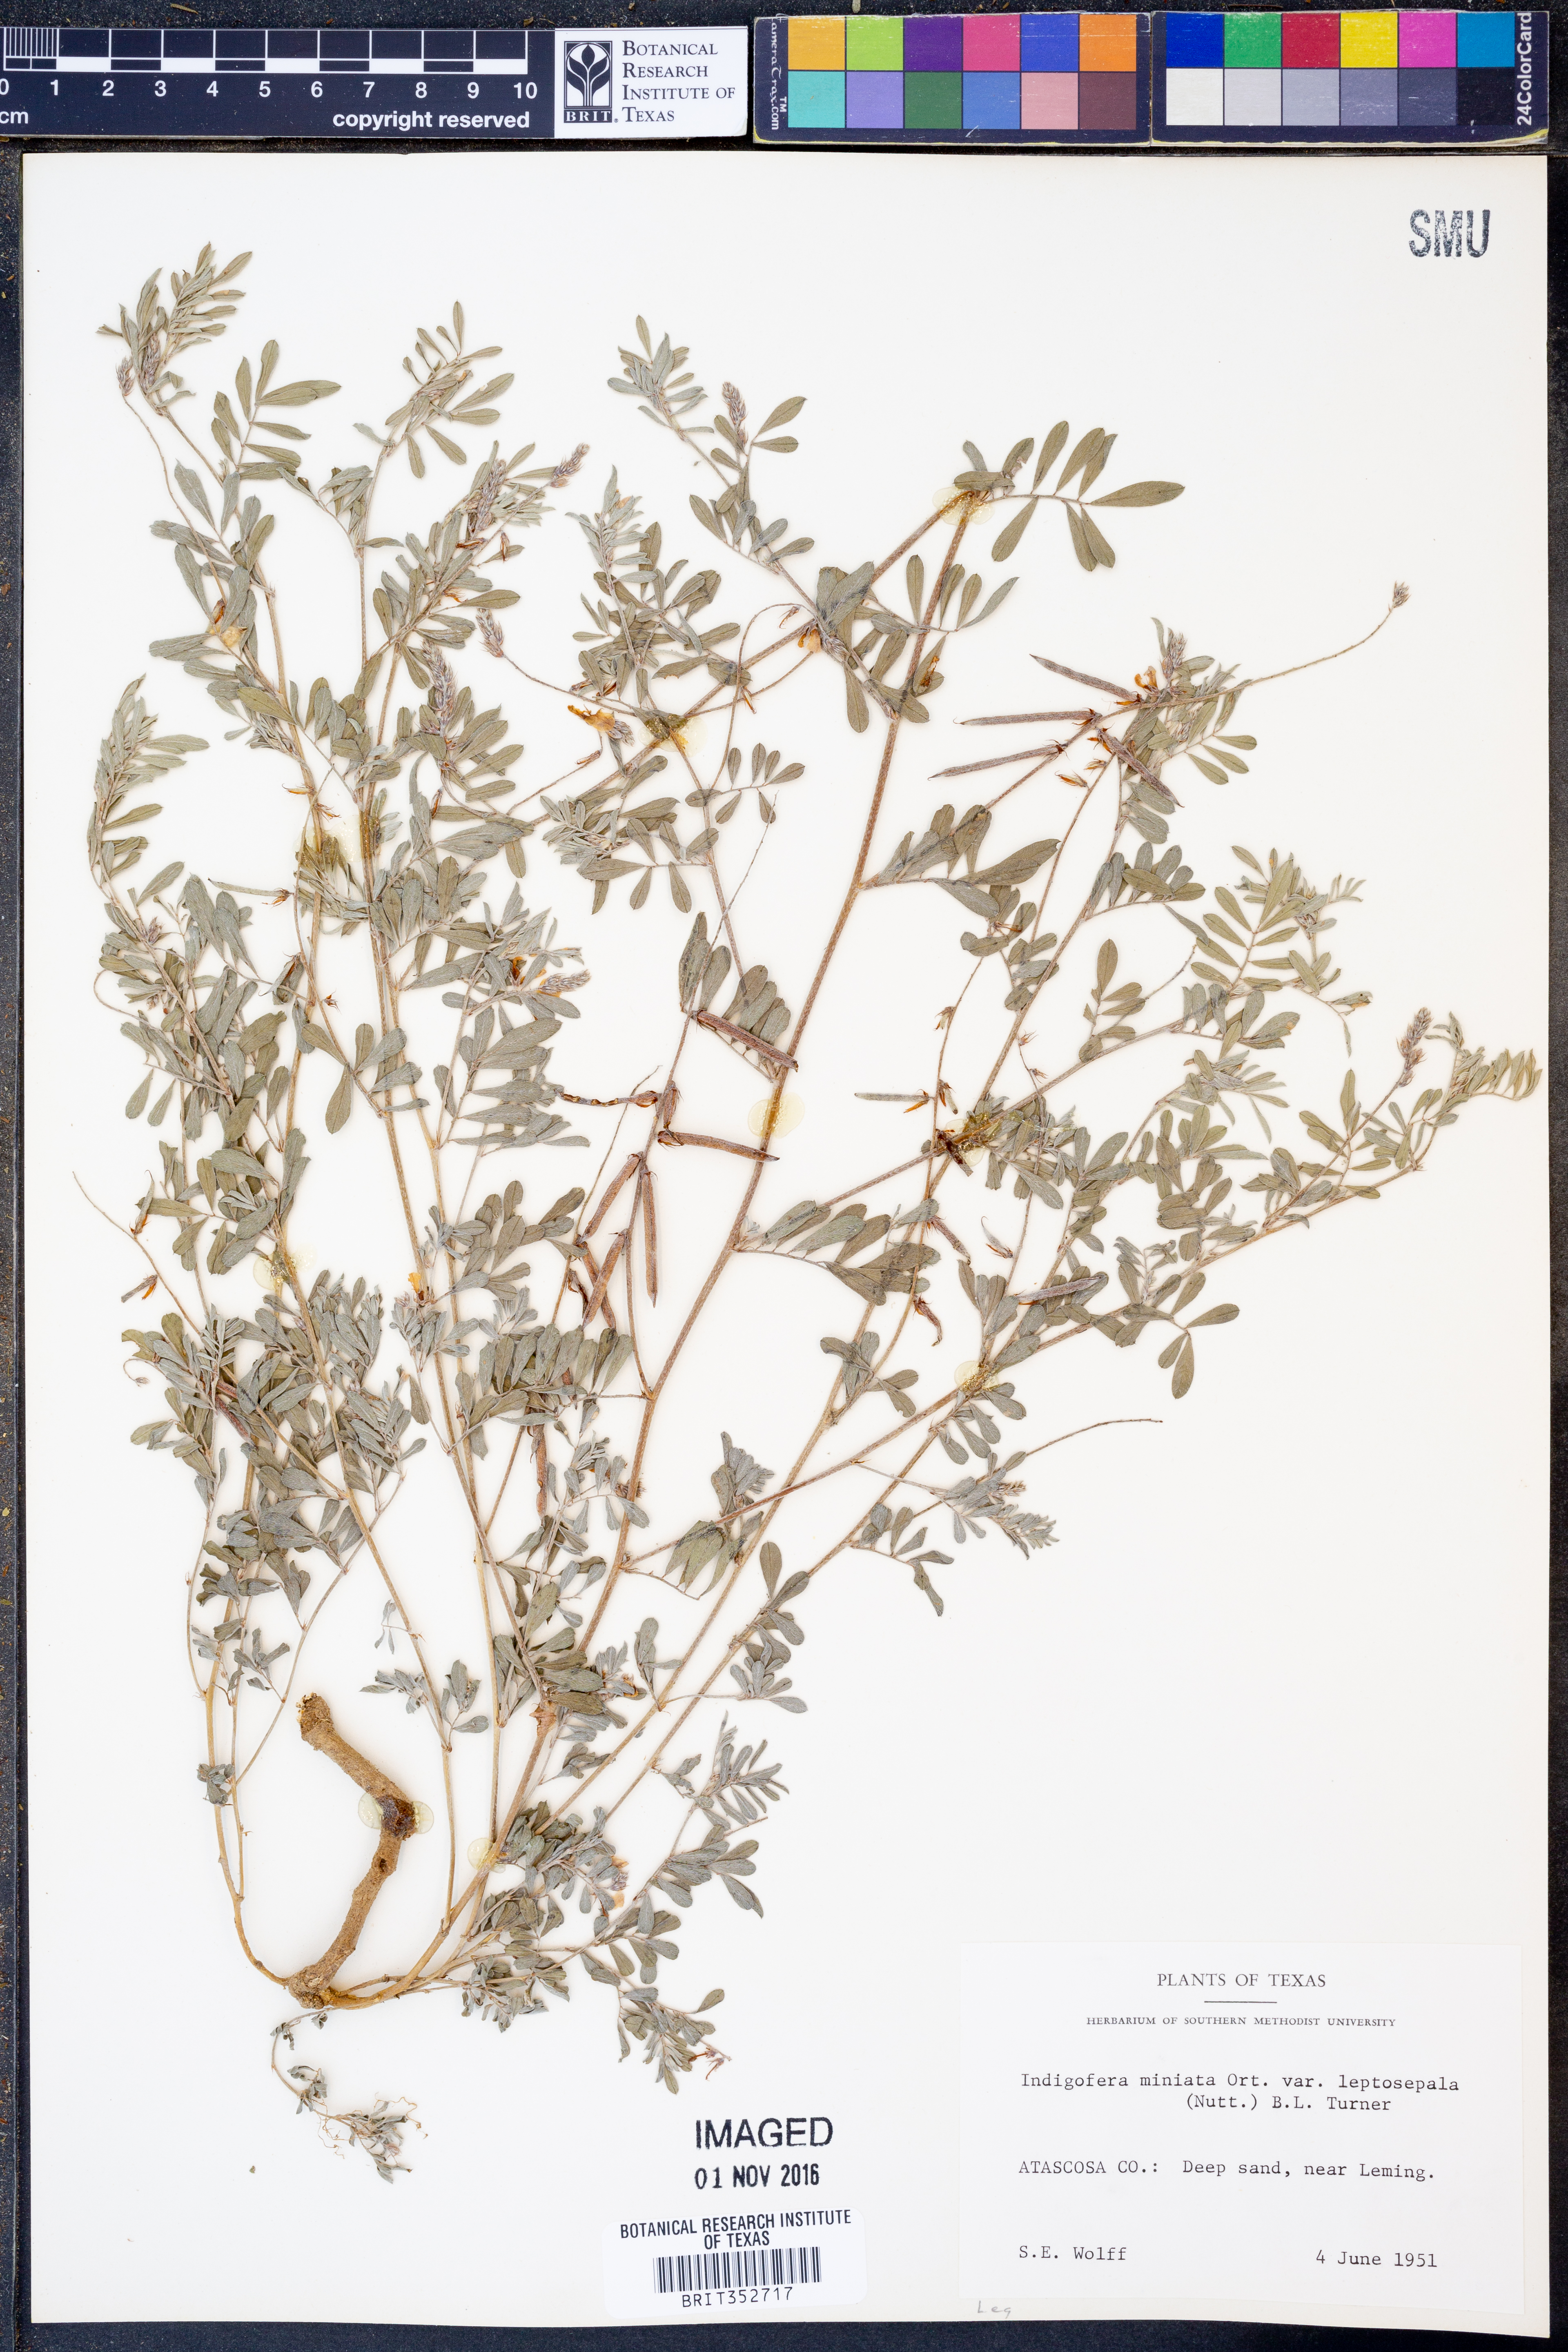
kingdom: Plantae
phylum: Tracheophyta
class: Magnoliopsida
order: Fabales
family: Fabaceae
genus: Indigofera
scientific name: Indigofera miniata
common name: Coast indigo
